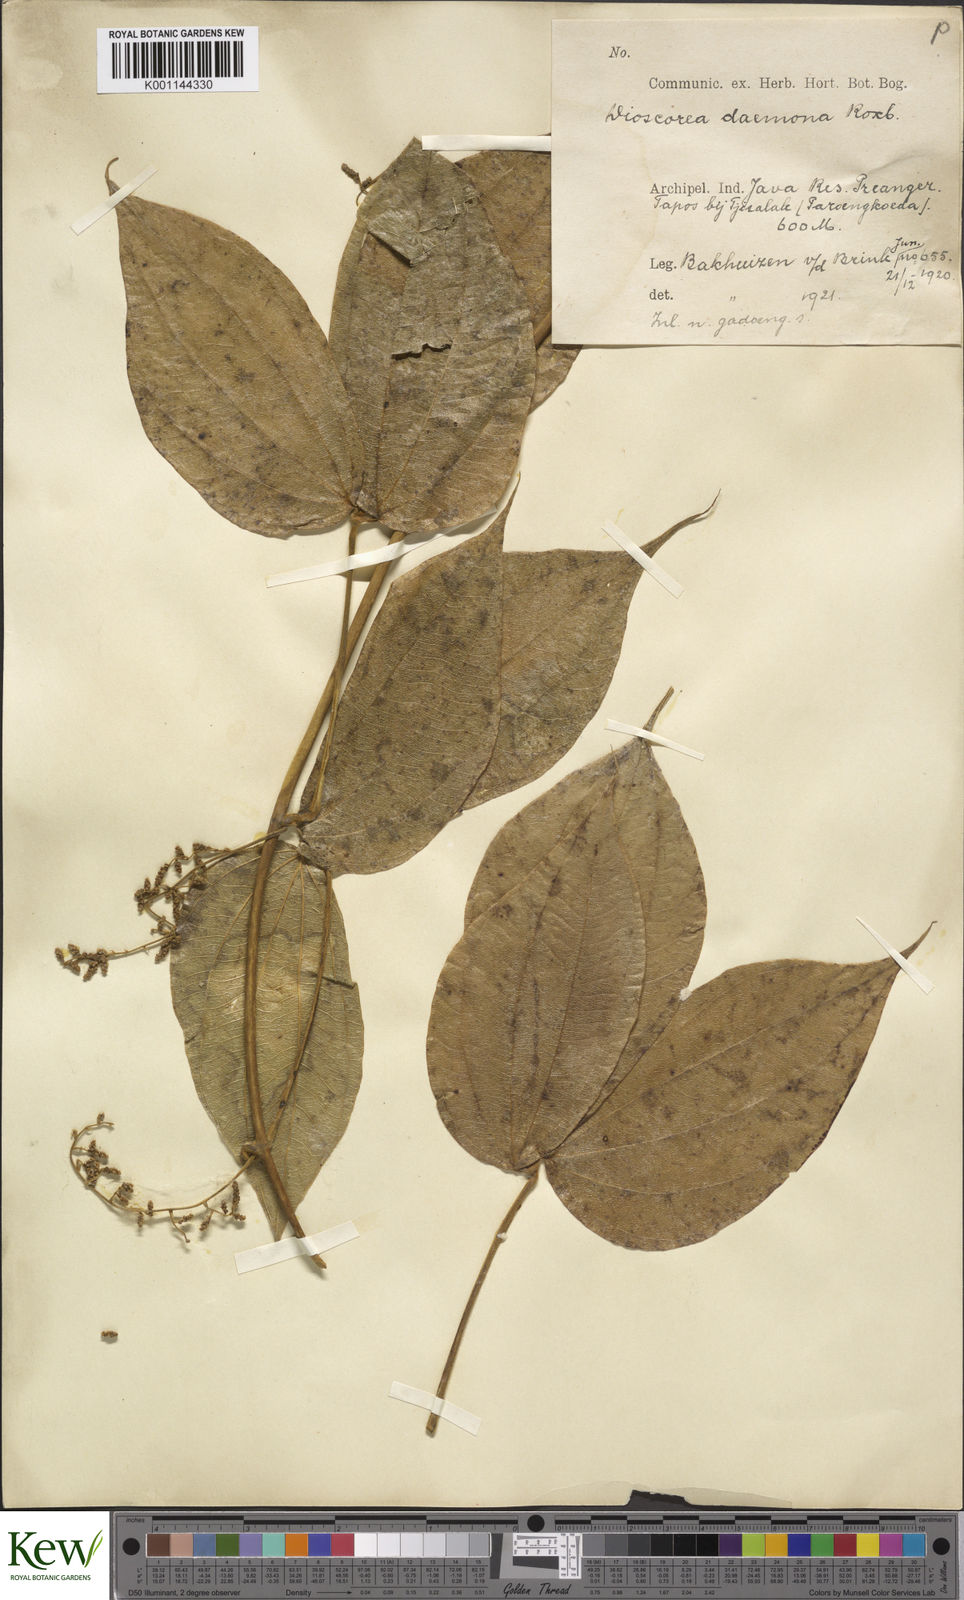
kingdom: Plantae
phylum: Tracheophyta
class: Liliopsida
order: Dioscoreales
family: Dioscoreaceae
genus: Dioscorea
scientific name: Dioscorea hispida
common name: Asiatic bitter yam
